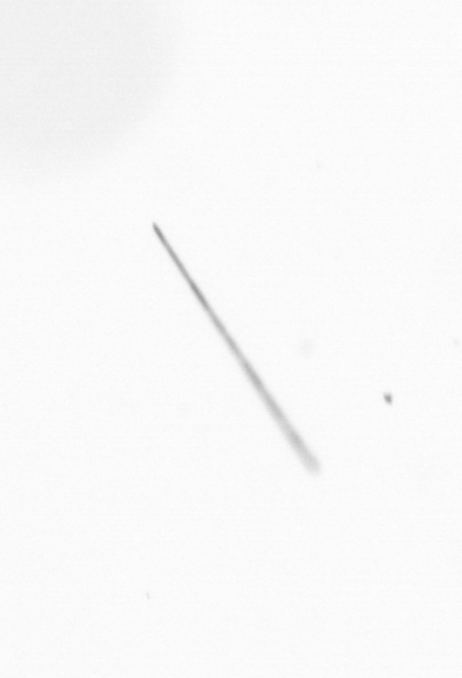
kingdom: Chromista
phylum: Ochrophyta
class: Bacillariophyceae
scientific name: Bacillariophyceae
